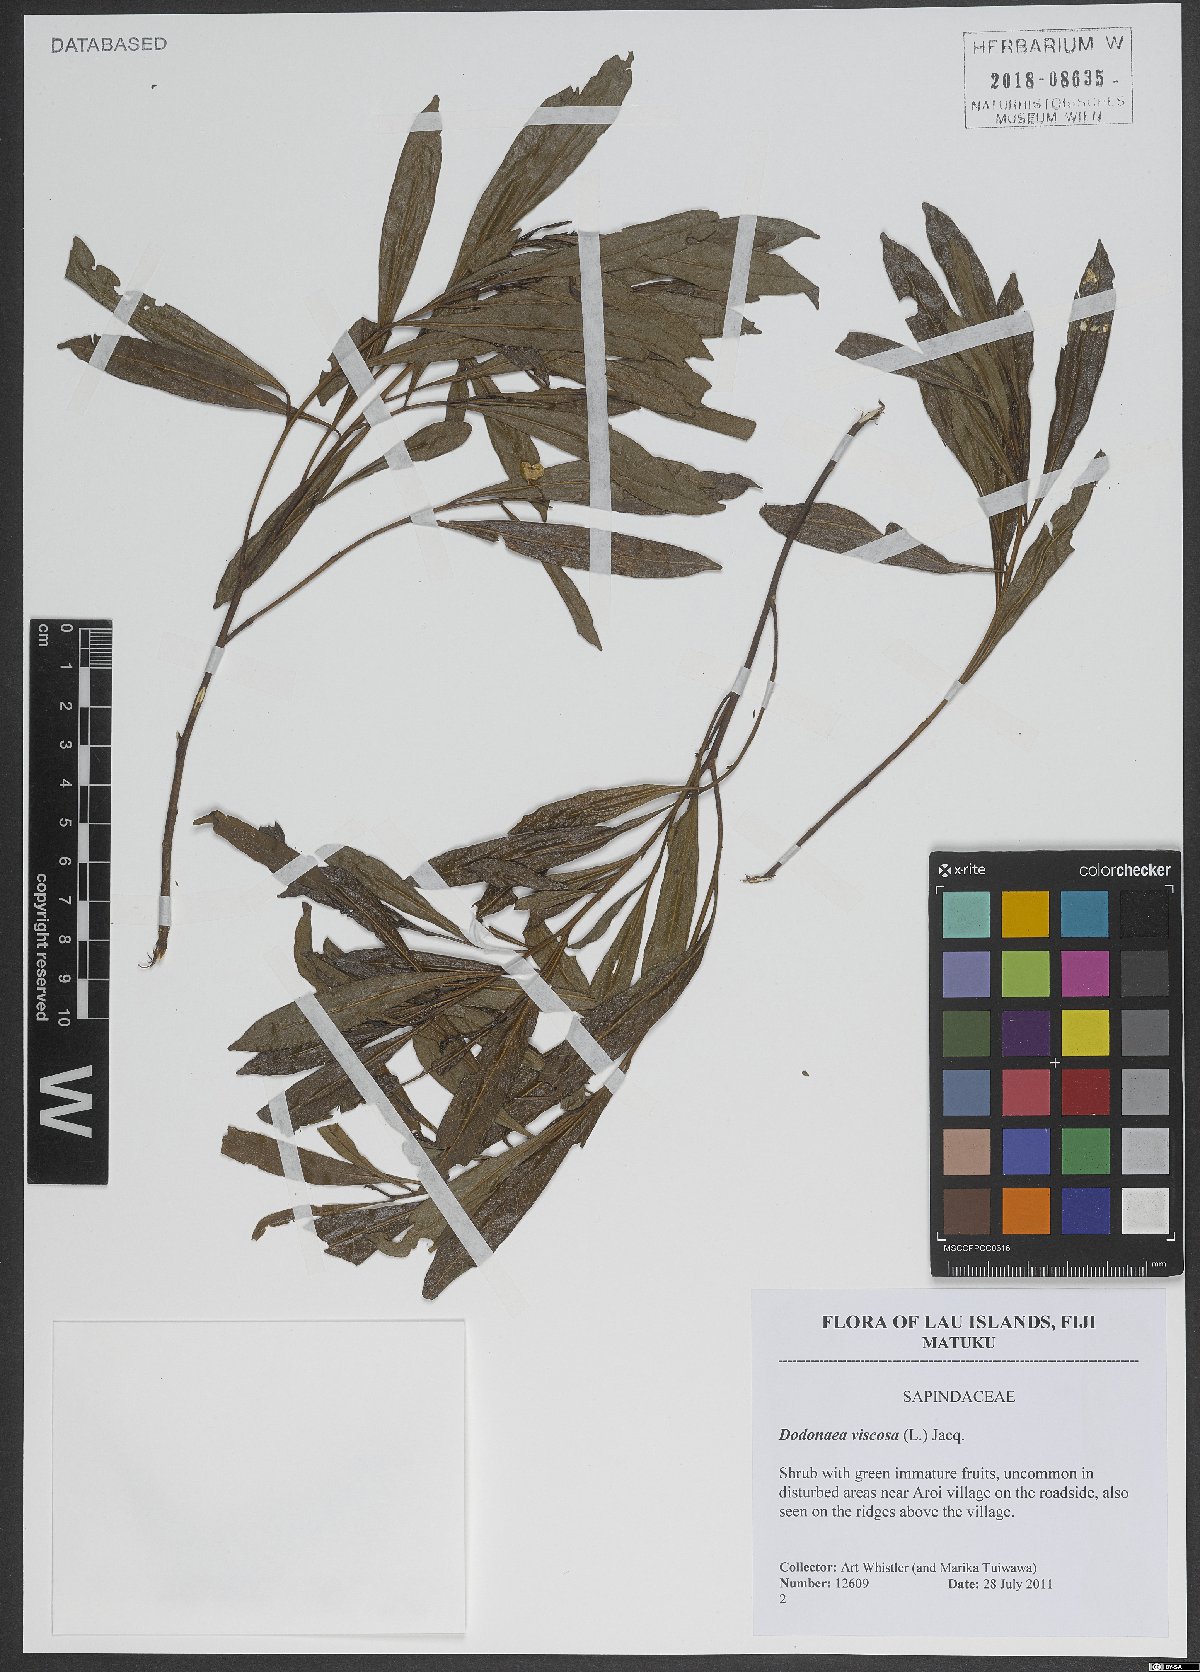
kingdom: Plantae
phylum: Tracheophyta
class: Magnoliopsida
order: Sapindales
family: Sapindaceae
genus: Dodonaea
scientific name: Dodonaea viscosa
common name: Hopbush
